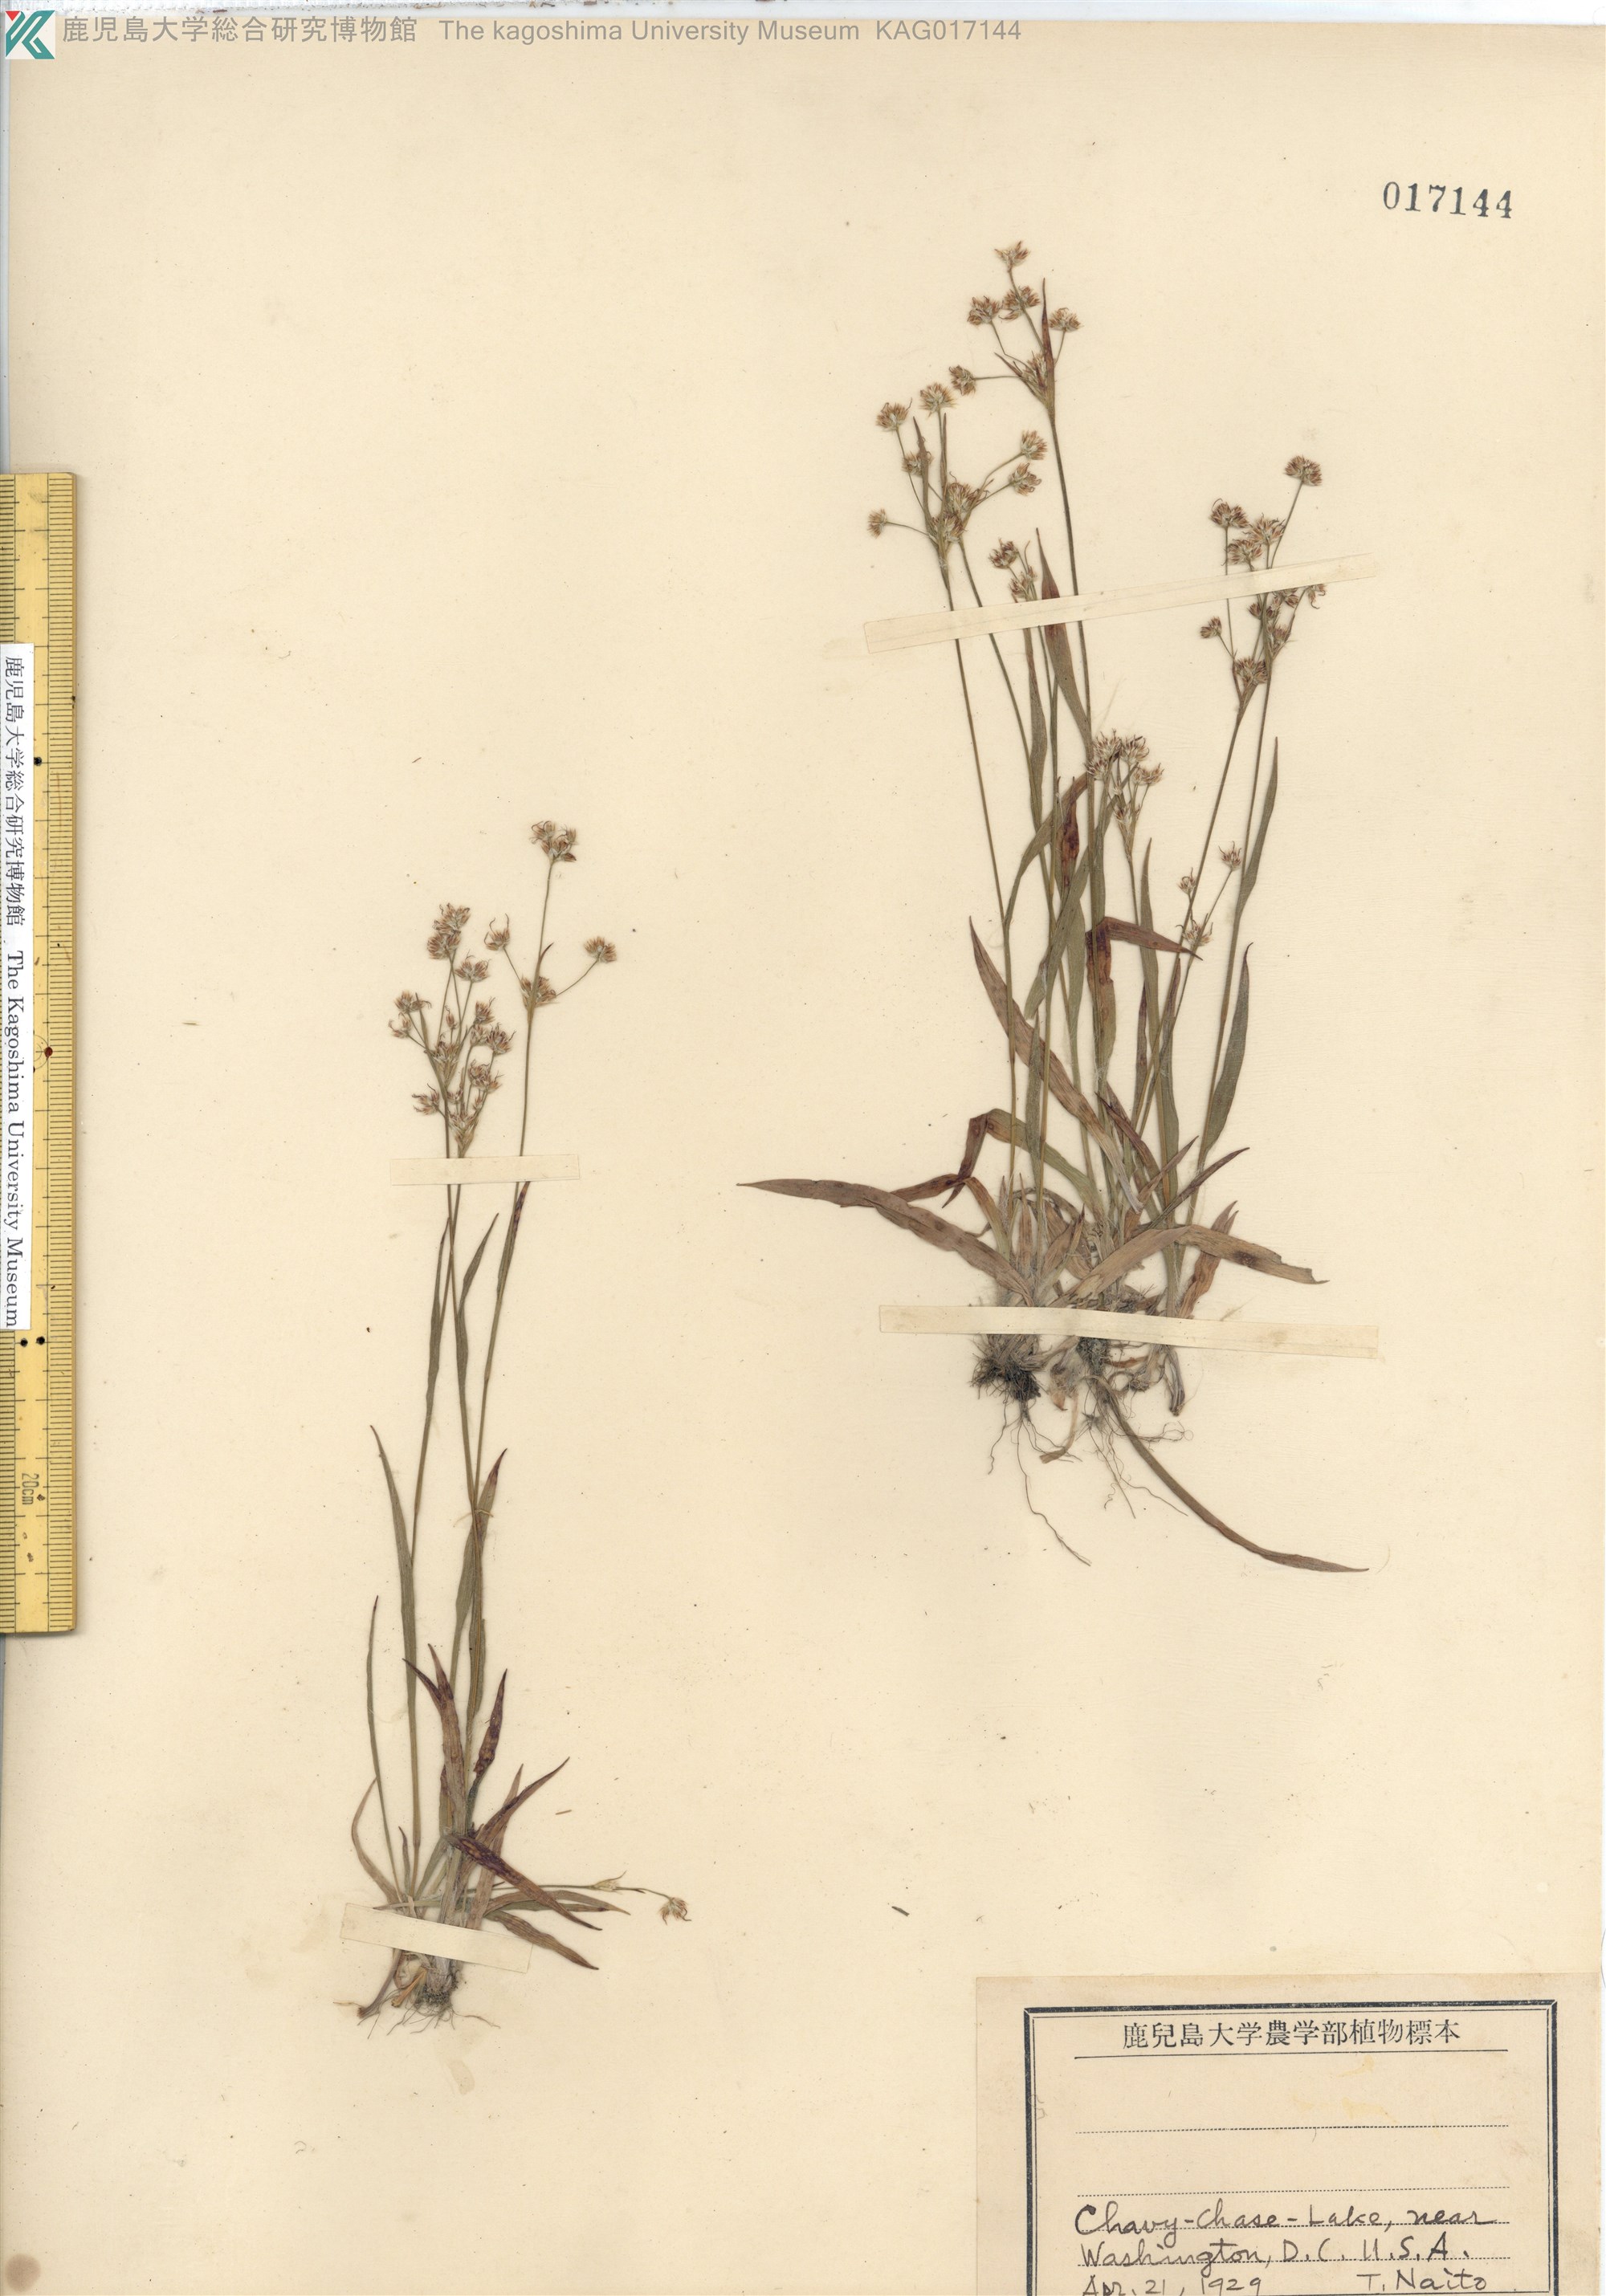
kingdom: Plantae
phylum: Tracheophyta
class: Liliopsida
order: Poales
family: Juncaceae
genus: Luzula
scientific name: Luzula campestris
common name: Field wood-rush
